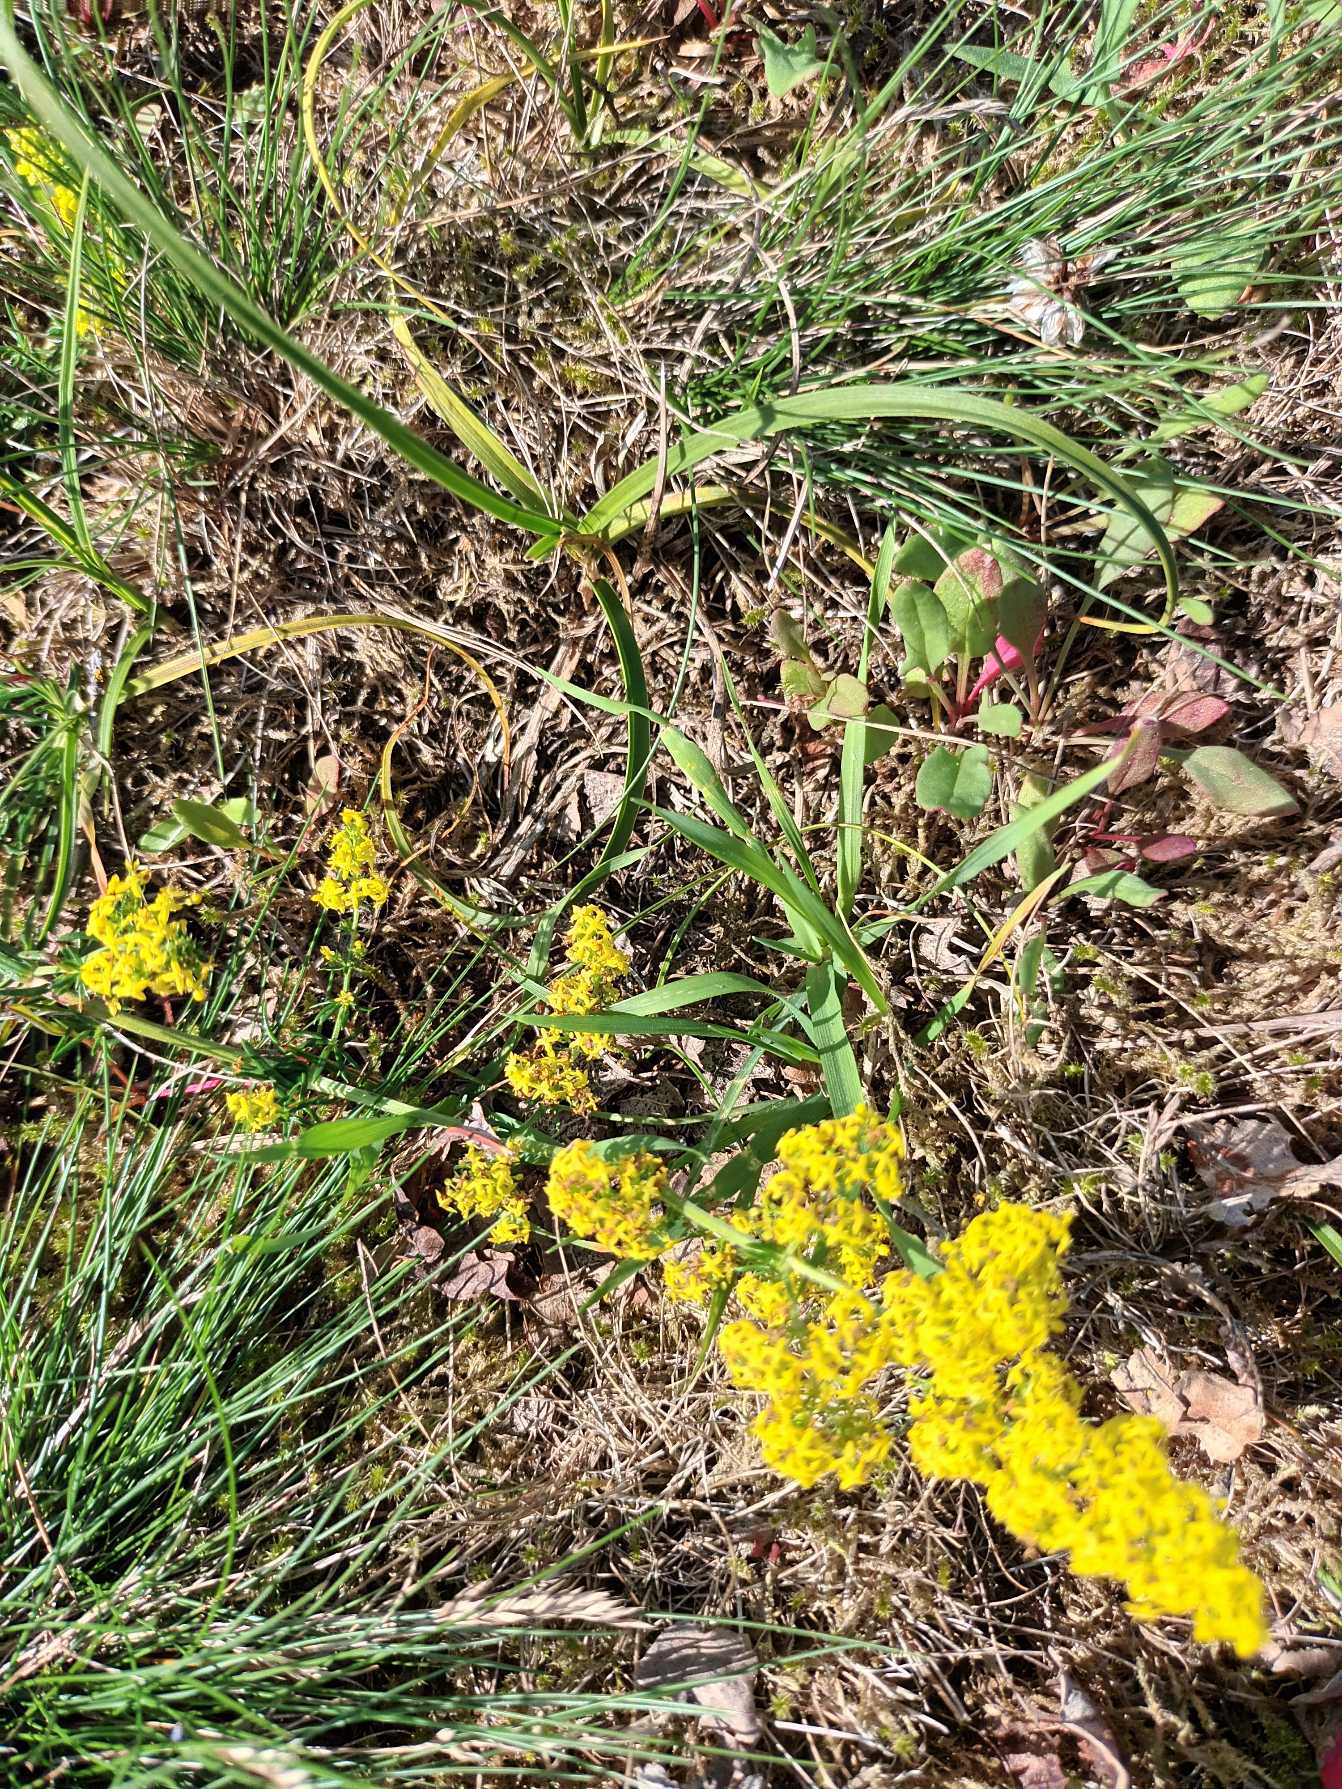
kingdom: Plantae
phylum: Tracheophyta
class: Magnoliopsida
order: Gentianales
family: Rubiaceae
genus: Galium
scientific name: Galium verum
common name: Gul snerre
